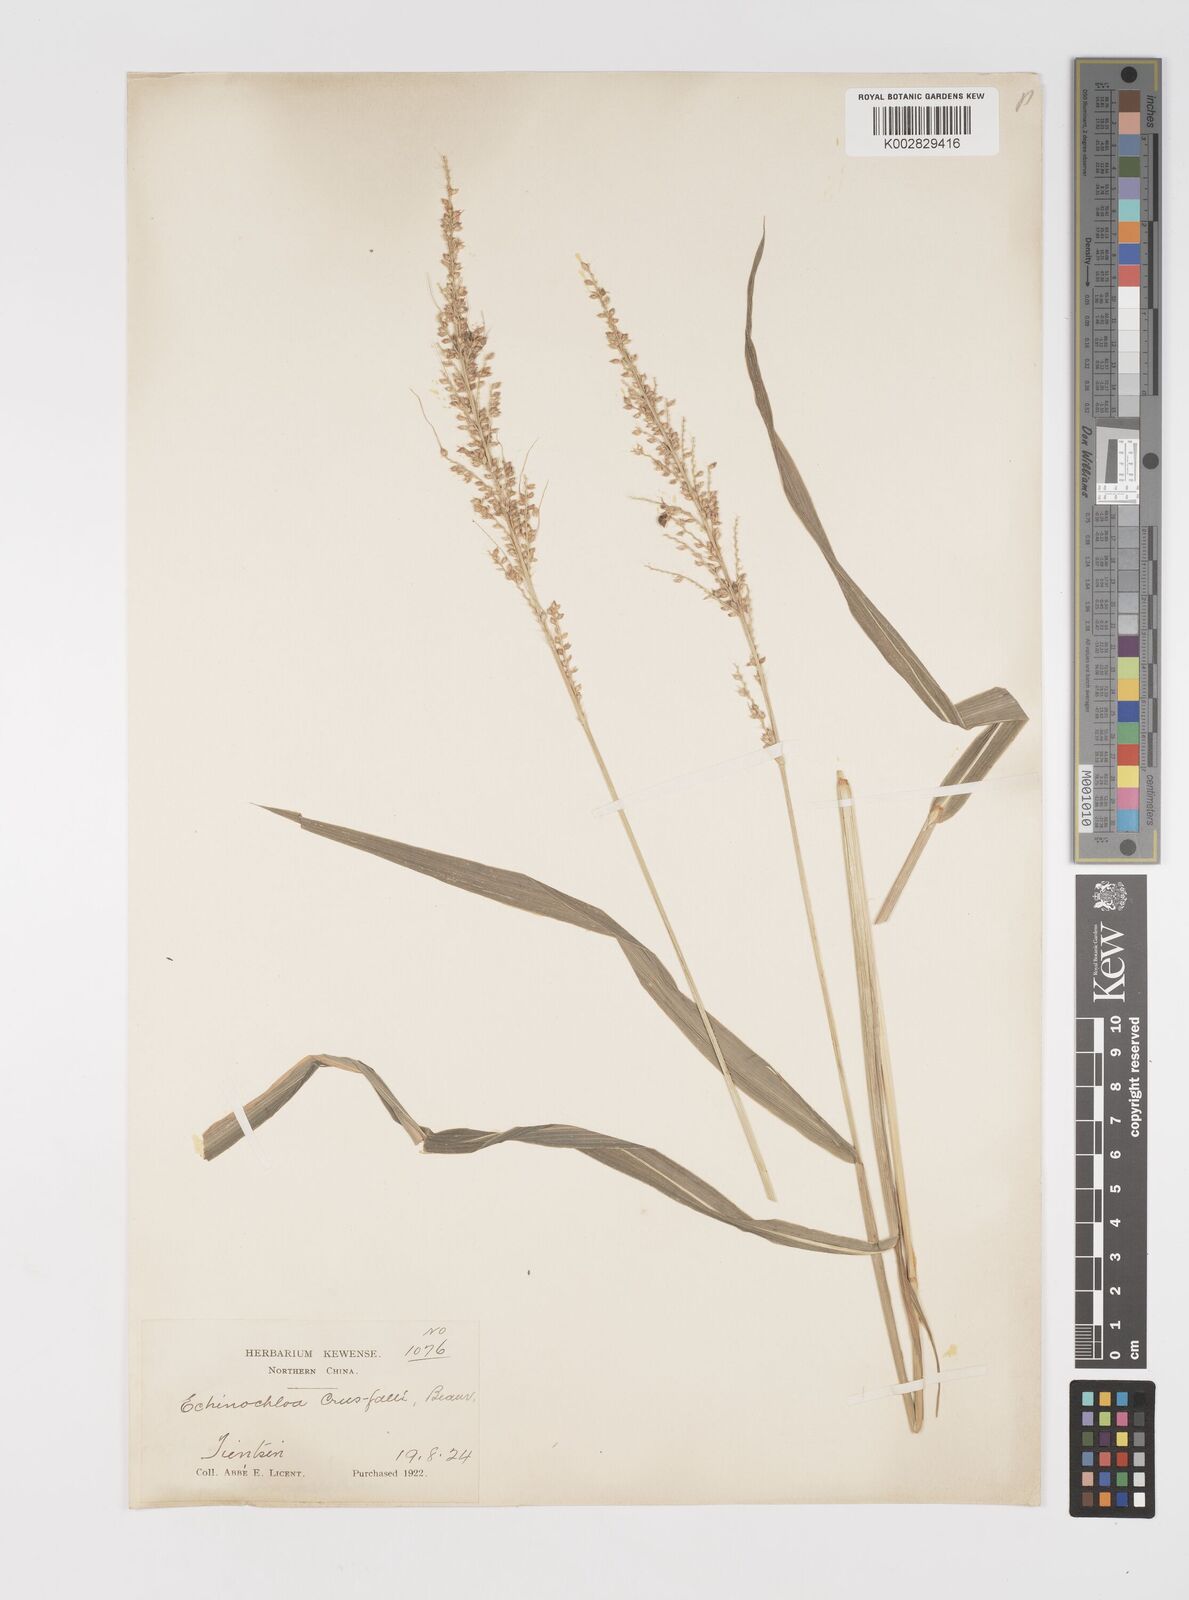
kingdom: Plantae
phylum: Tracheophyta
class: Liliopsida
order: Poales
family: Poaceae
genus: Echinochloa
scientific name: Echinochloa crus-galli
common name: Cockspur
